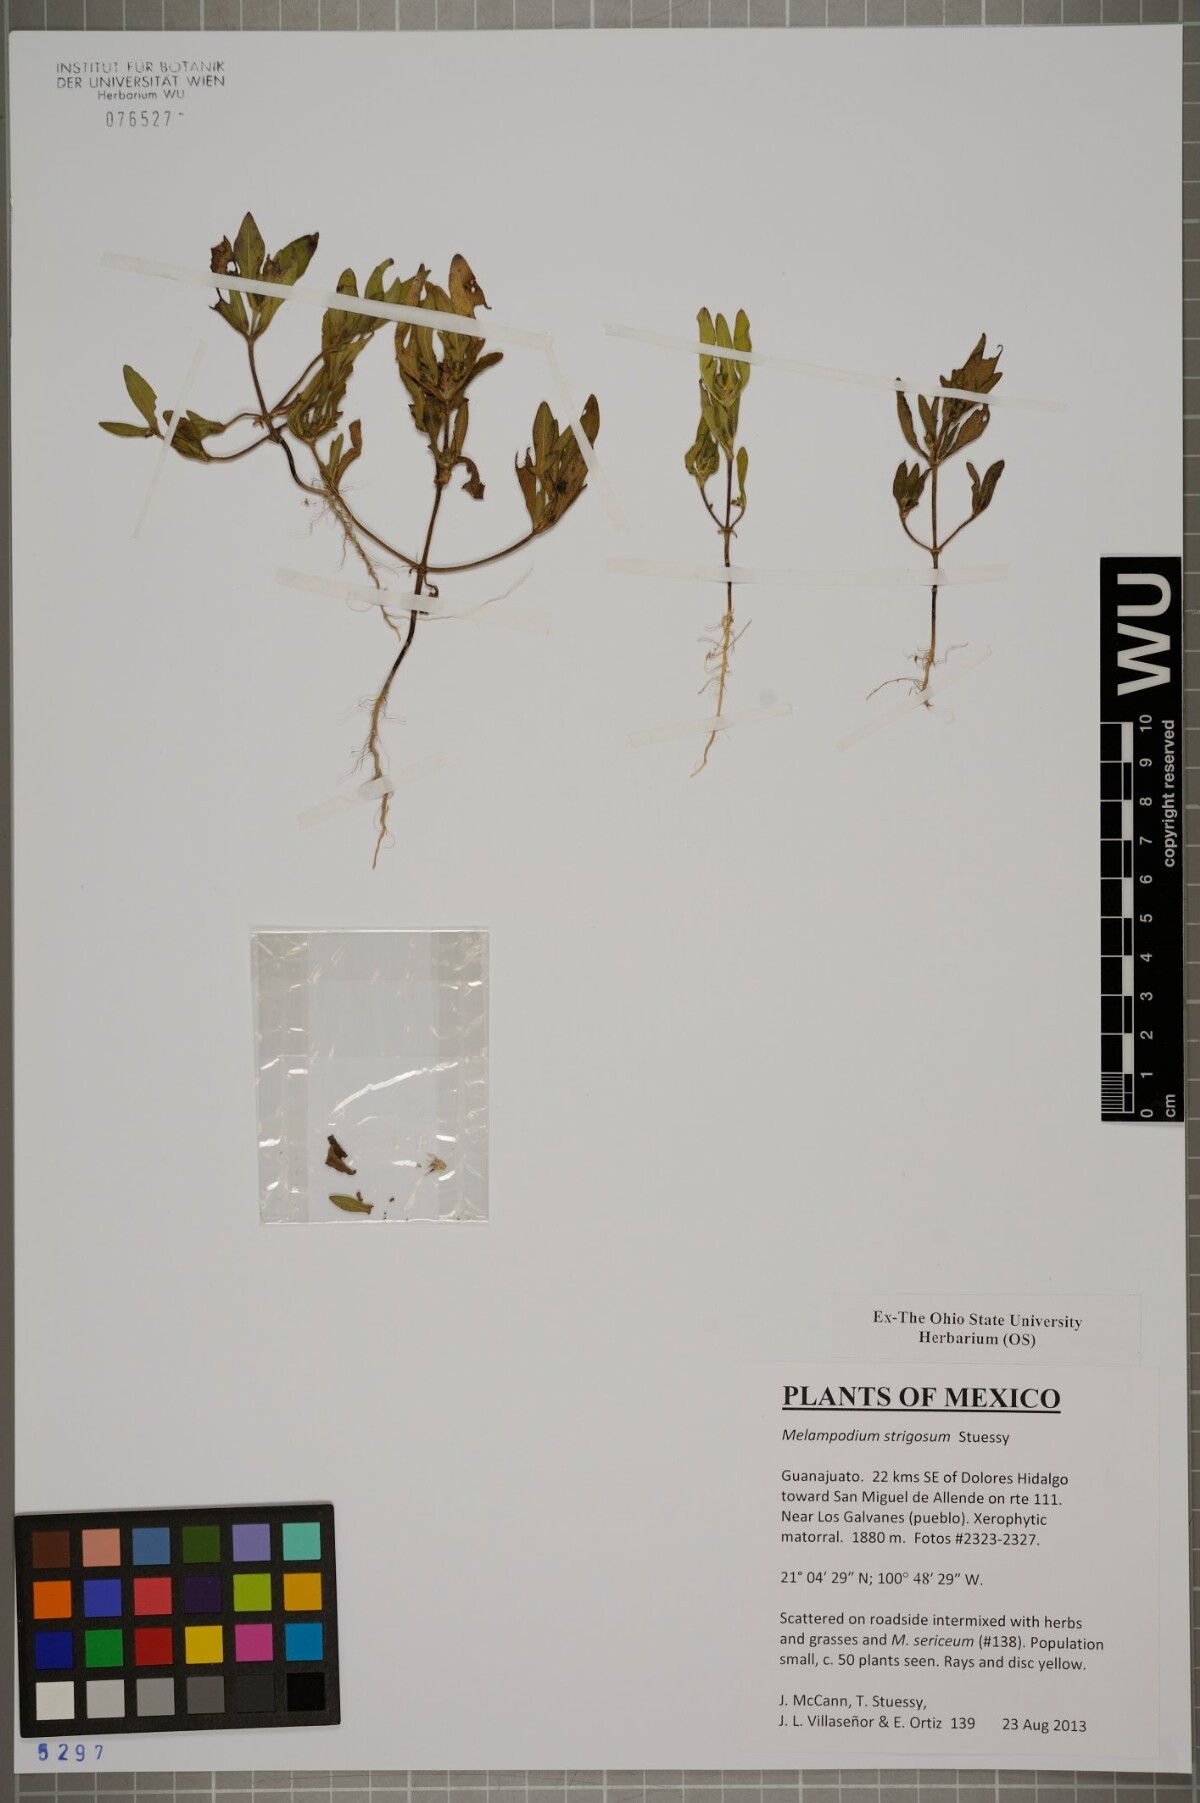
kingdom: Plantae
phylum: Tracheophyta
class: Magnoliopsida
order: Asterales
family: Asteraceae
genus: Melampodium
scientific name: Melampodium strigosum
